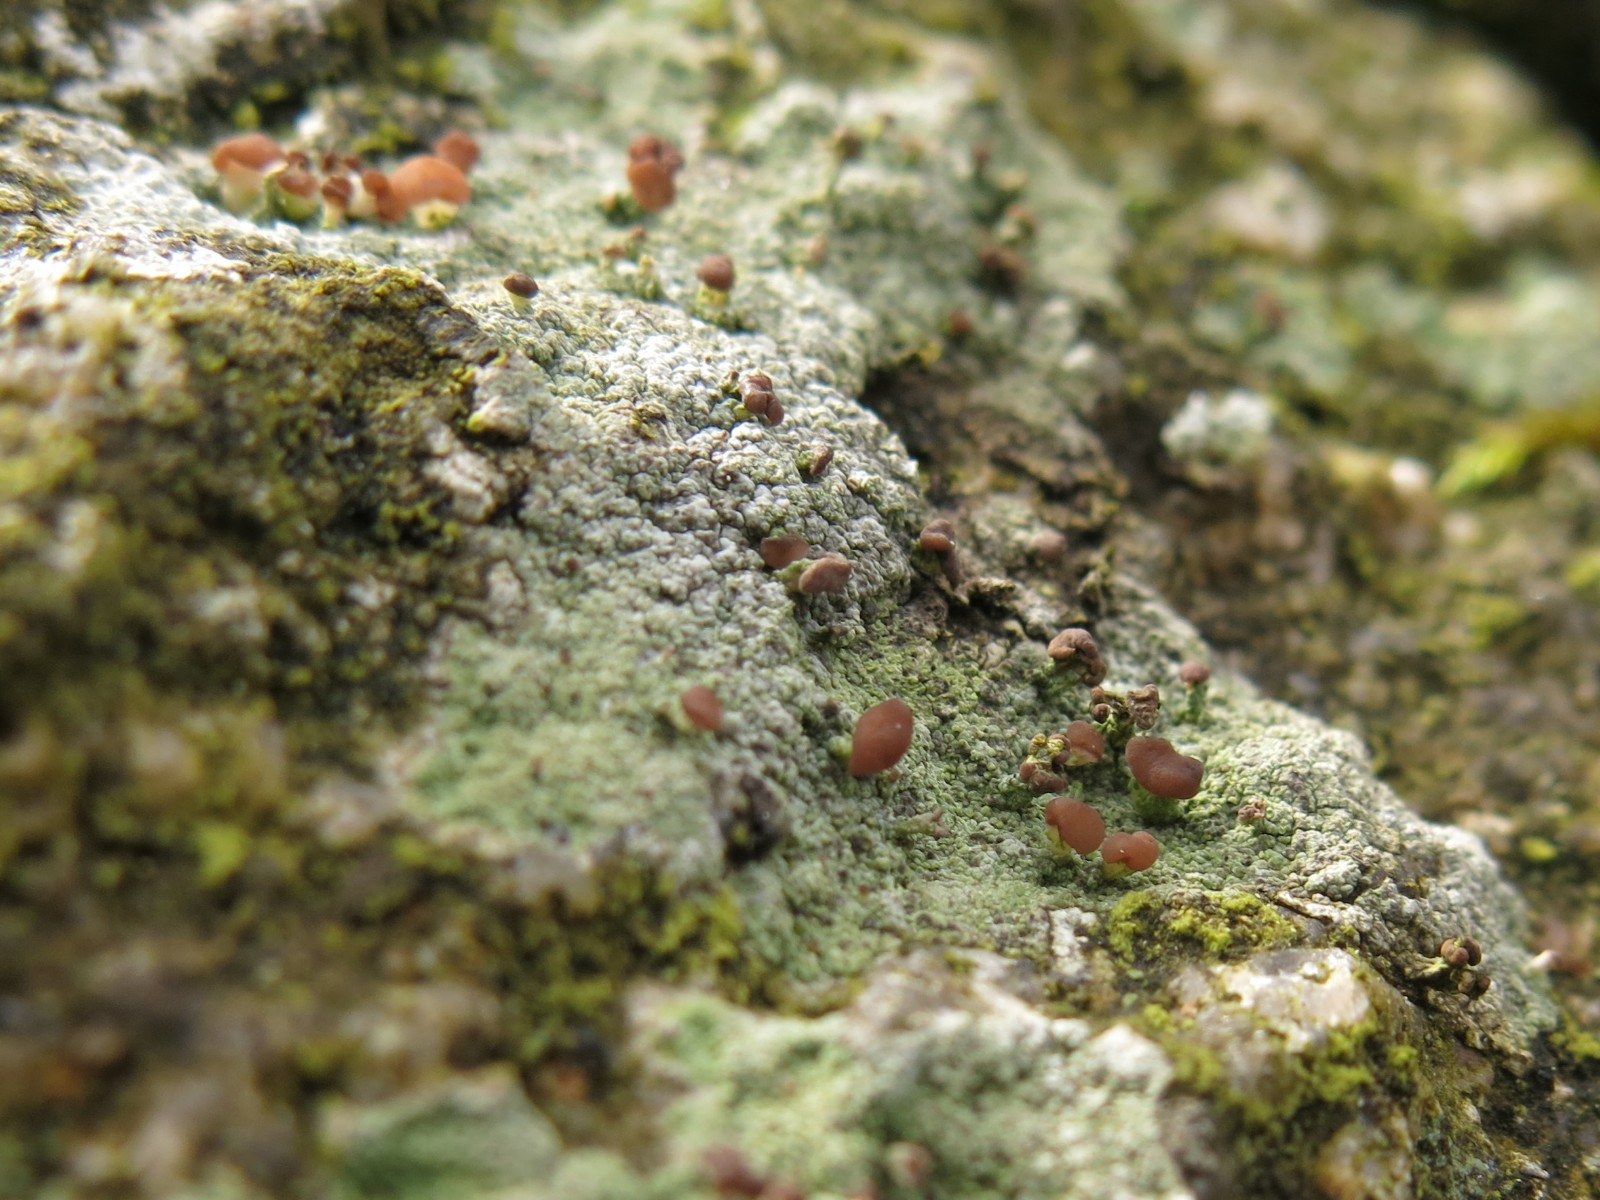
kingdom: Fungi
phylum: Ascomycota
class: Lecanoromycetes
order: Baeomycetales
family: Baeomycetaceae
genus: Baeomyces
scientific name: Baeomyces rufus
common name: rødbrun svampelav
